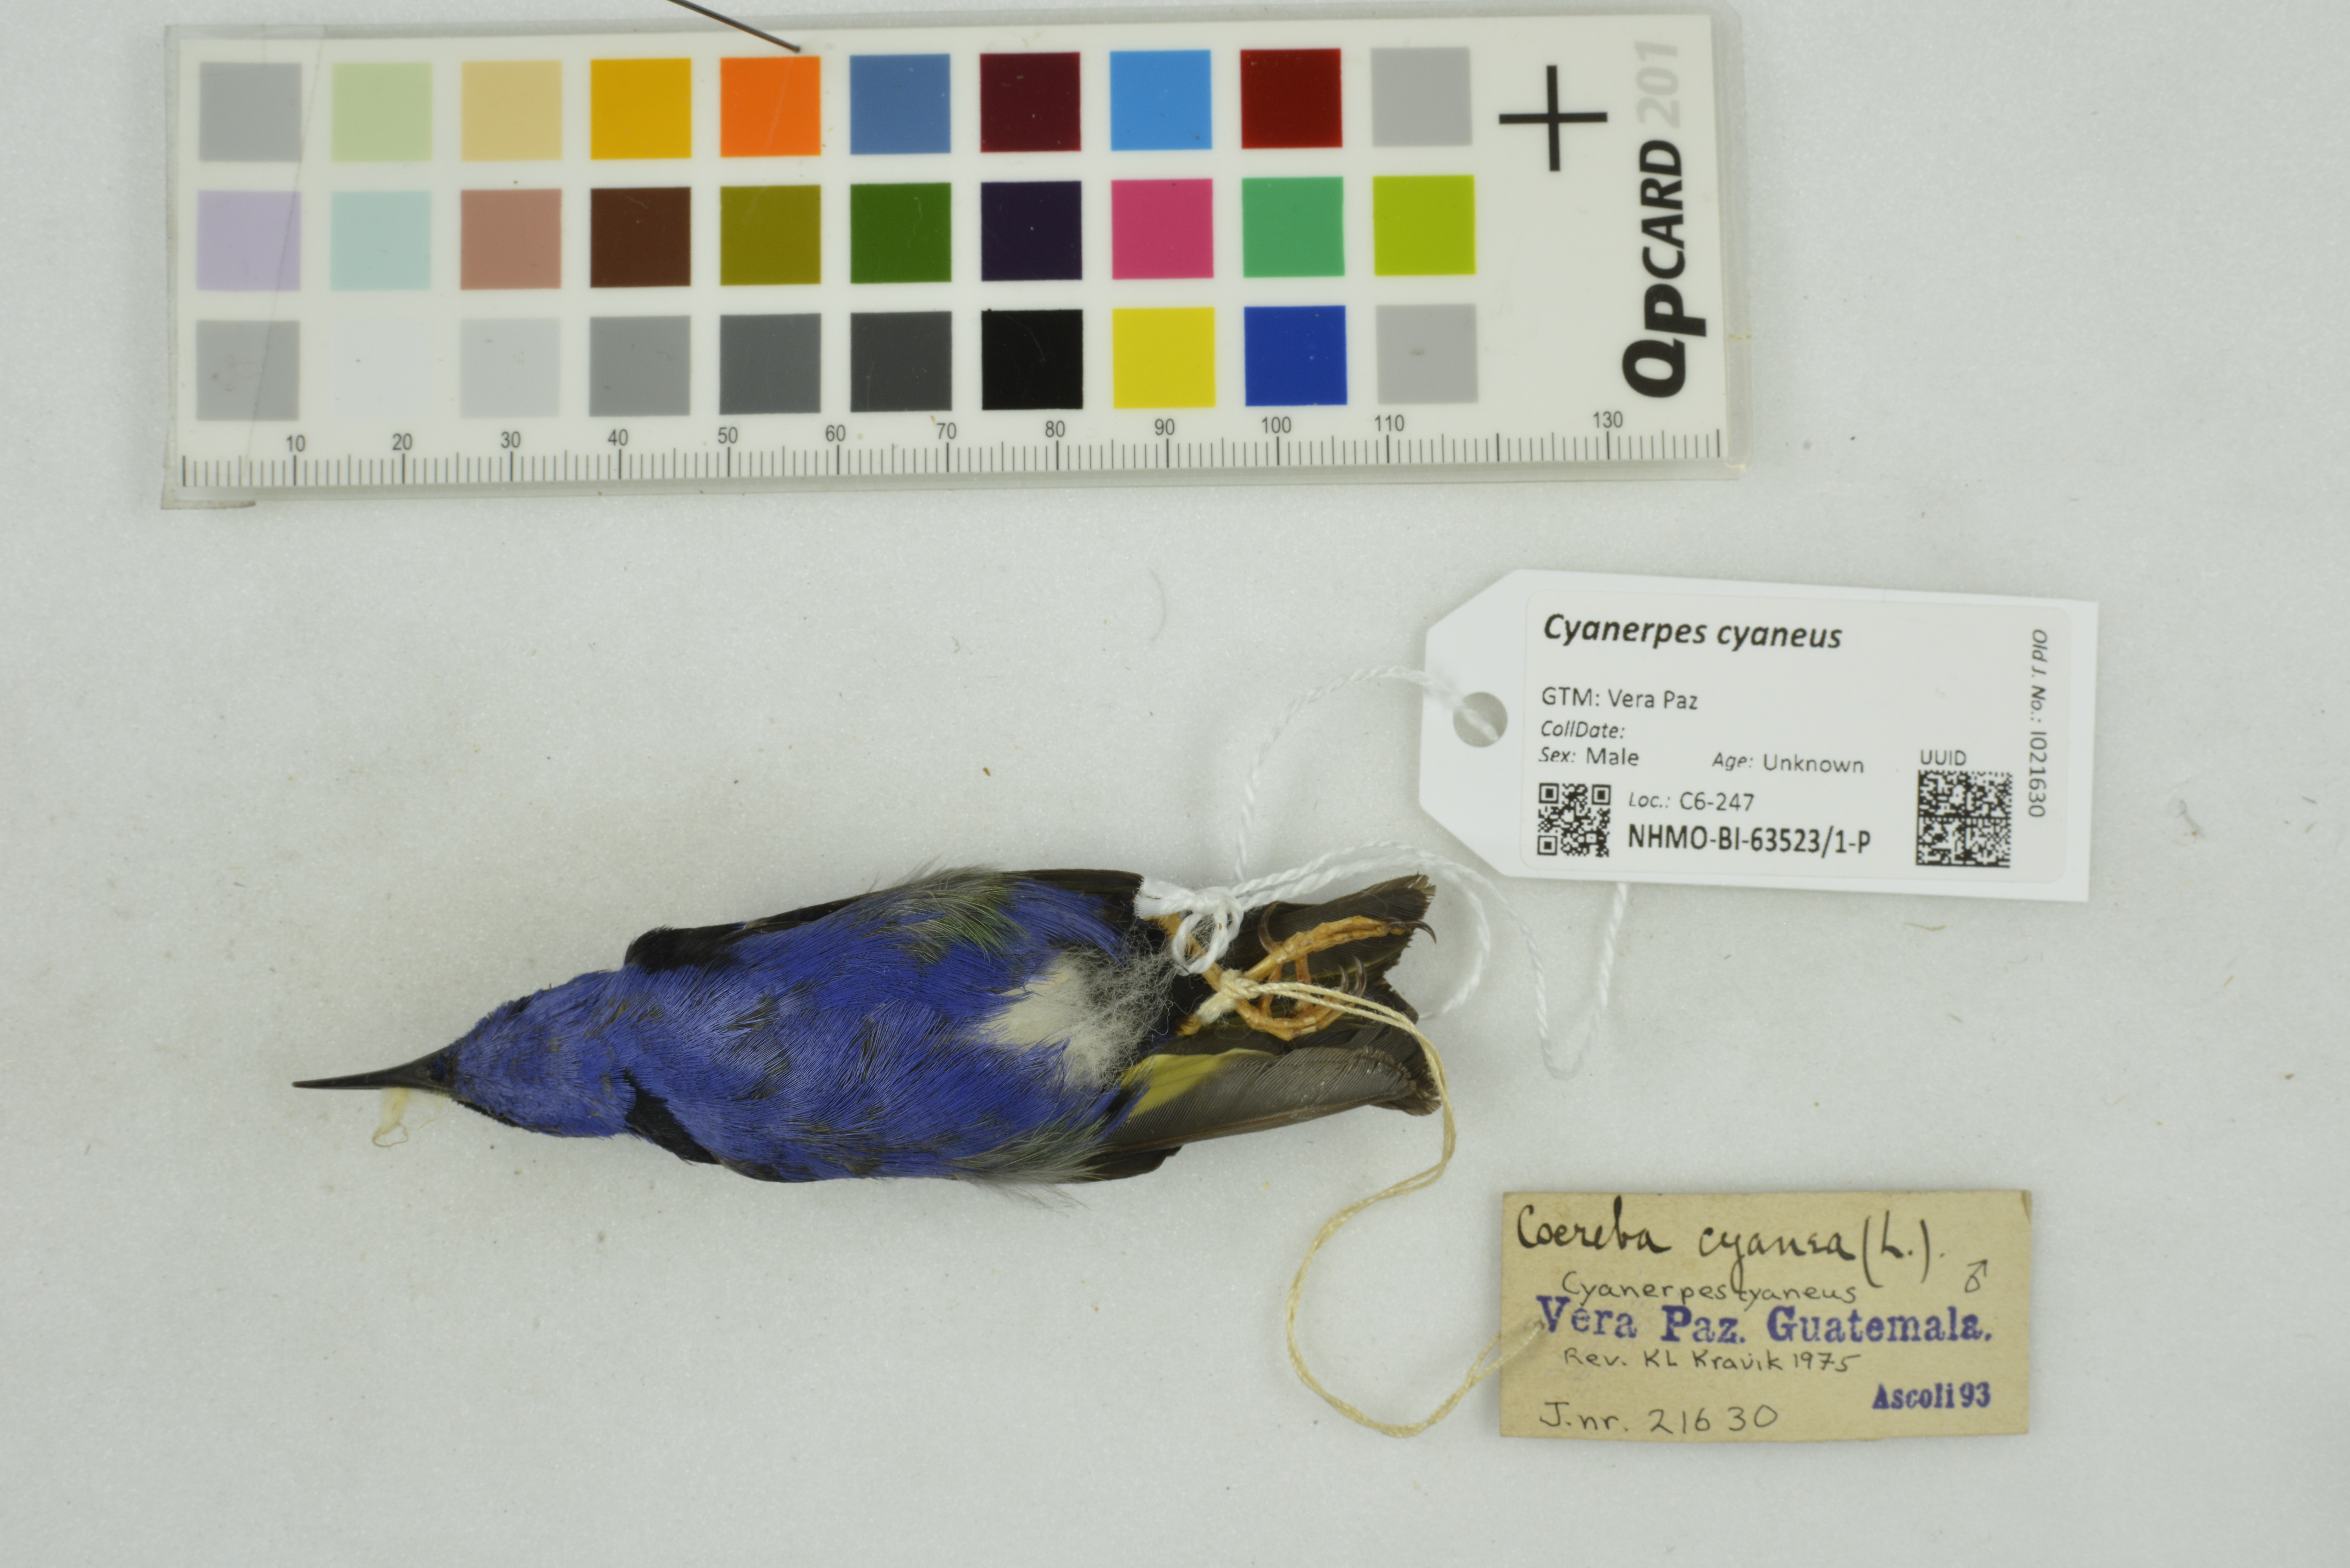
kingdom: Animalia
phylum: Chordata
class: Aves
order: Passeriformes
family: Thraupidae
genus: Cyanerpes
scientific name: Cyanerpes cyaneus
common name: Red-legged honeycreeper
